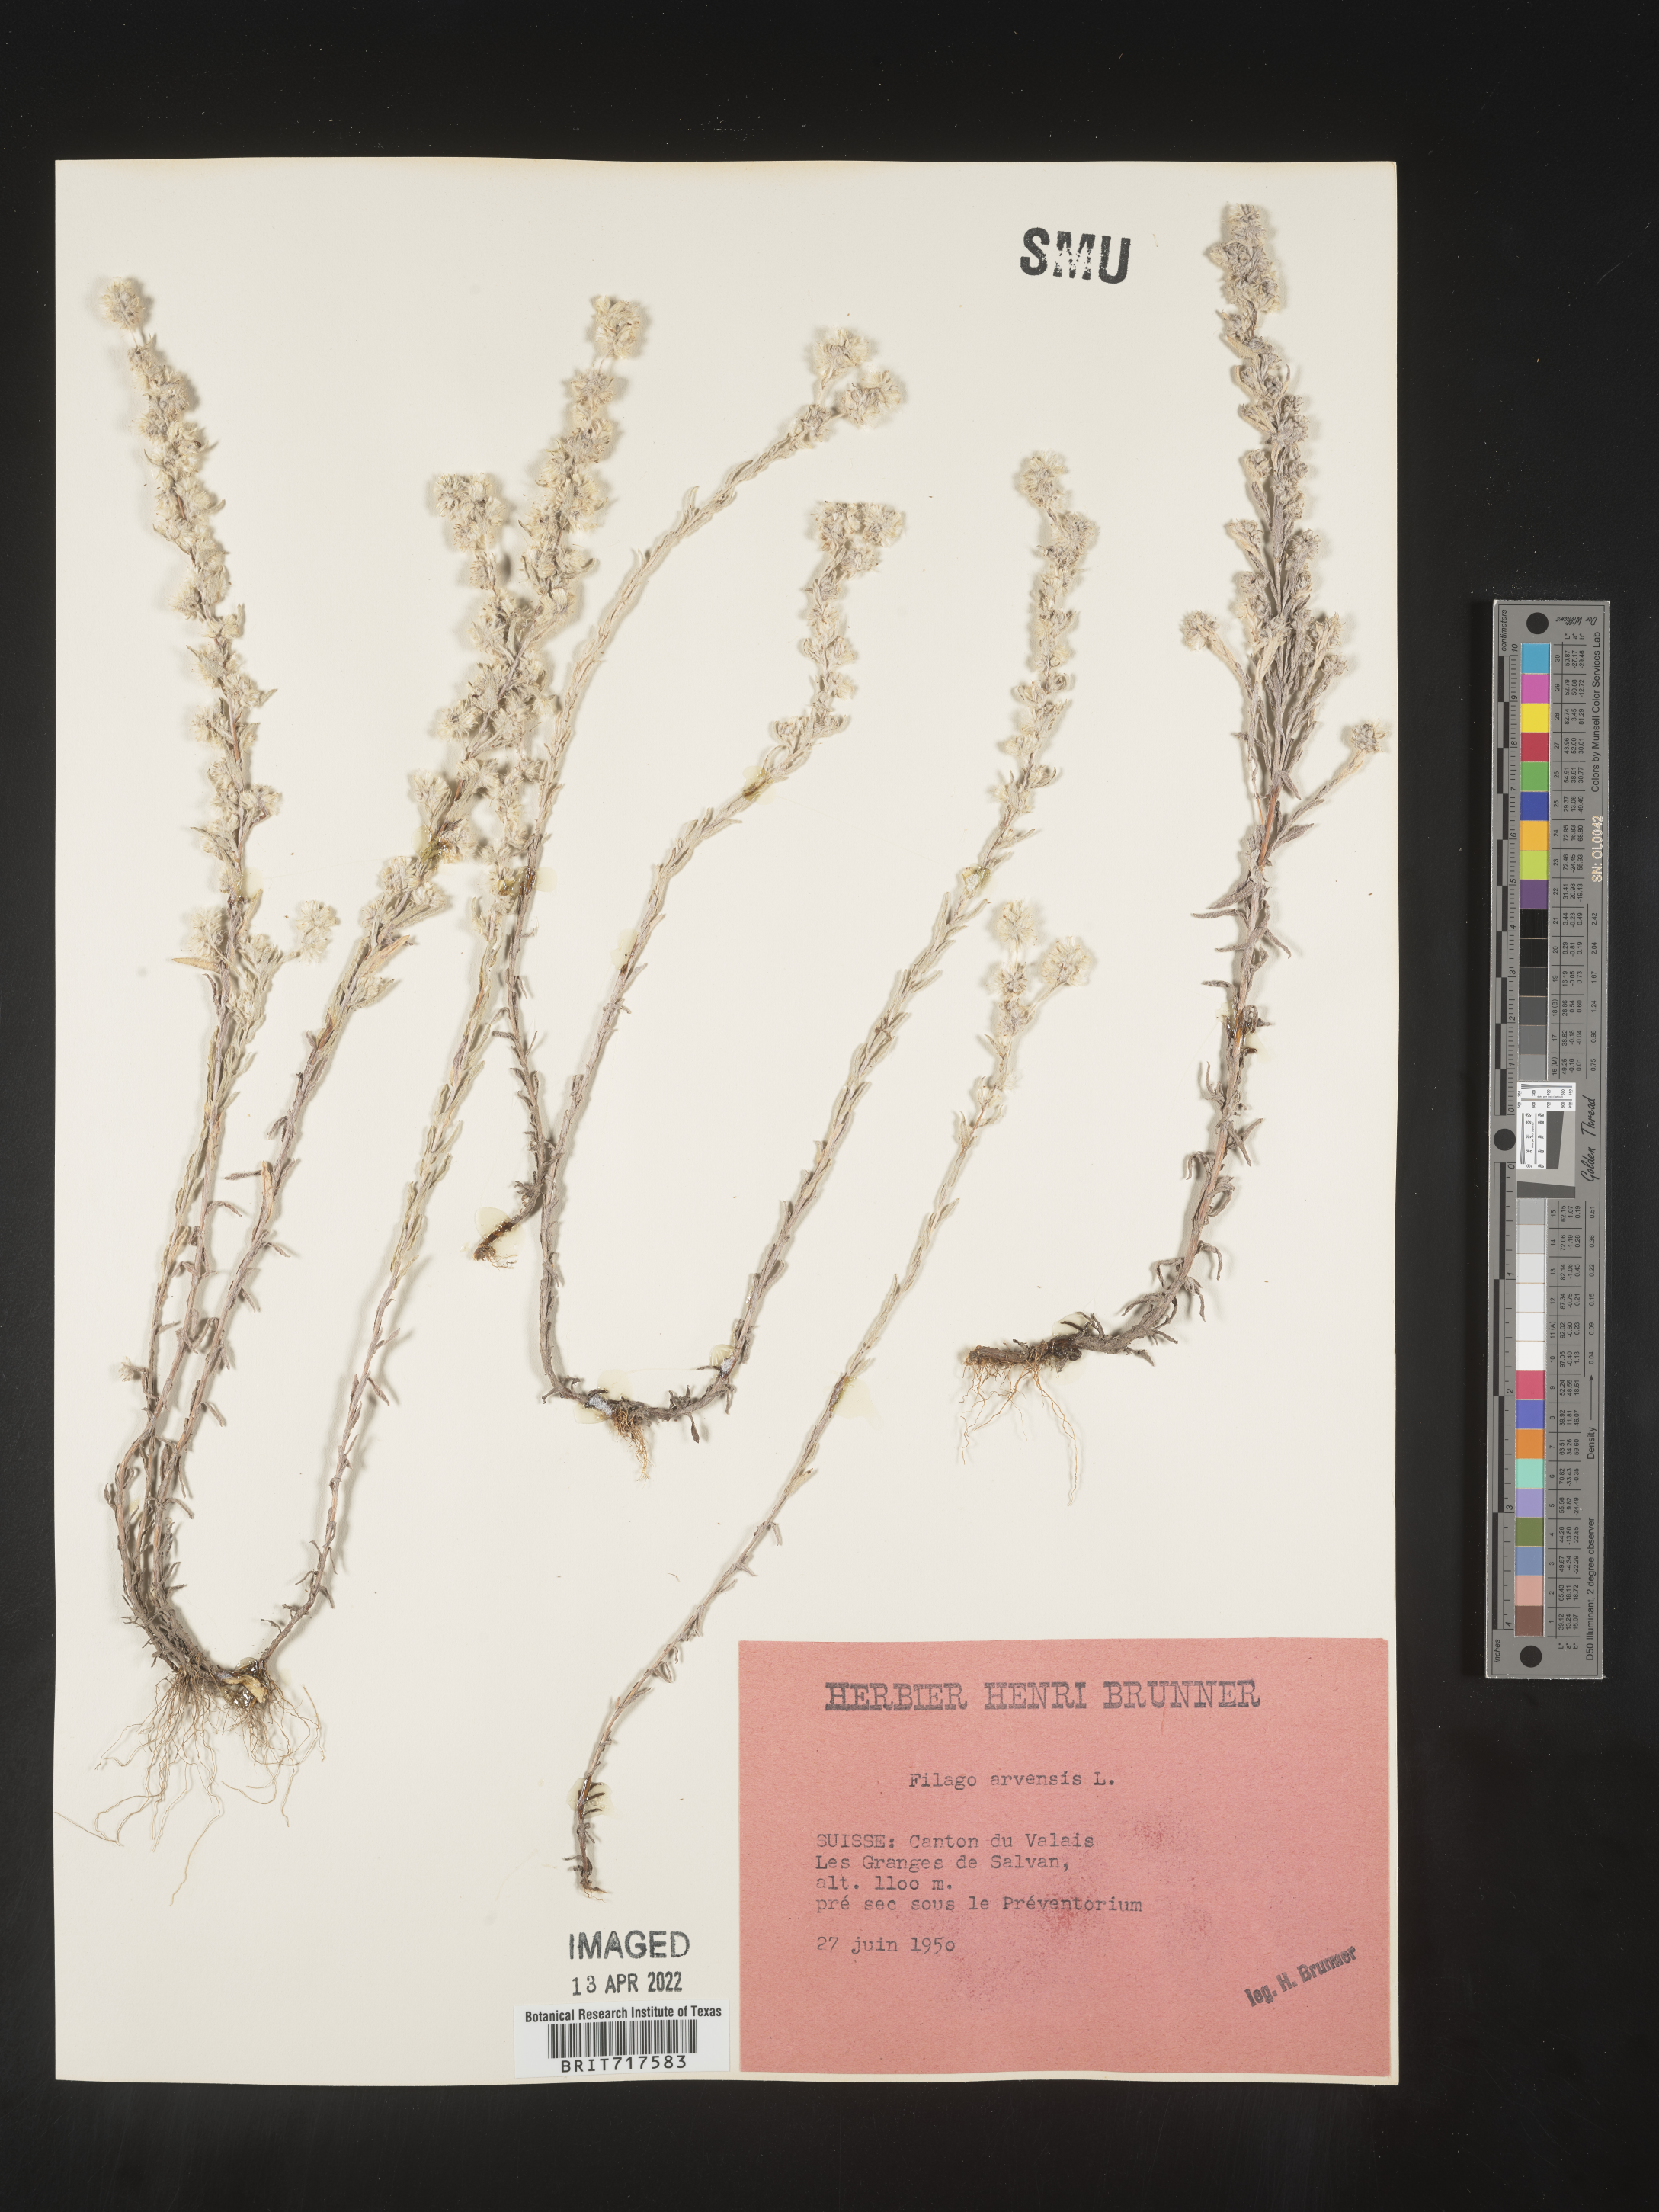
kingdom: Plantae
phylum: Tracheophyta
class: Magnoliopsida
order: Asterales
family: Asteraceae
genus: Filago
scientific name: Filago
